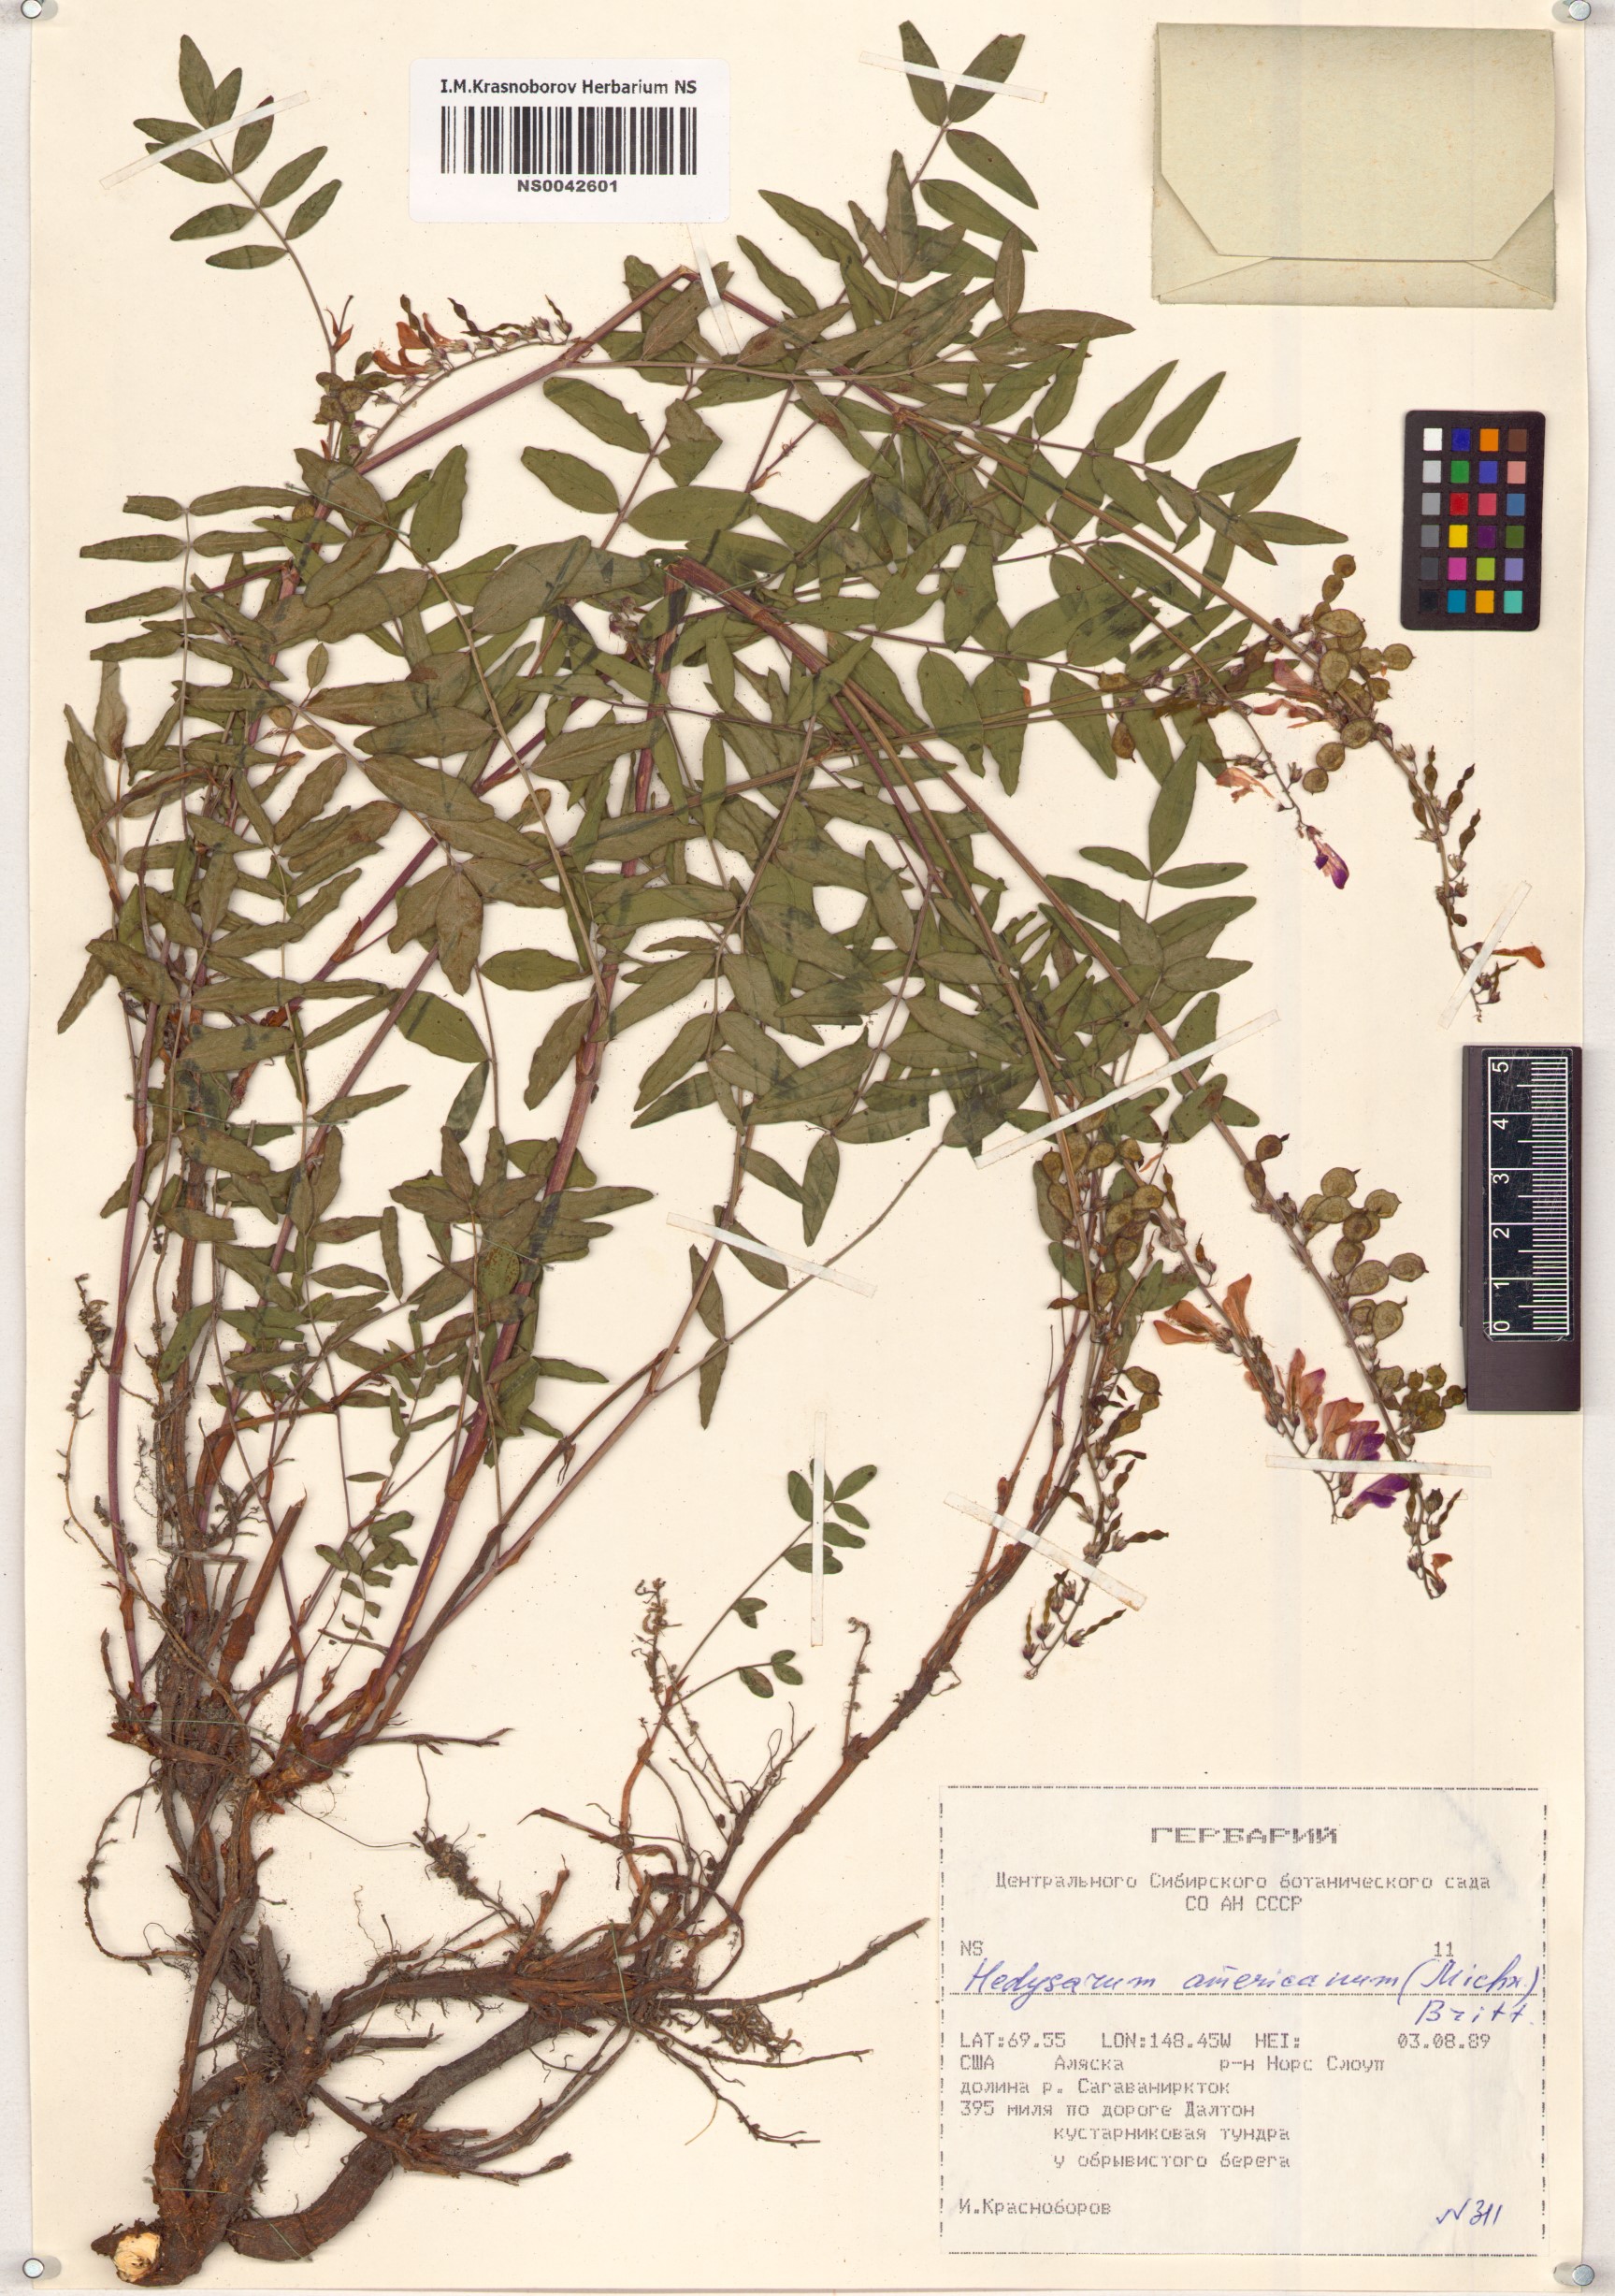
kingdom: Plantae
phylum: Tracheophyta
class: Magnoliopsida
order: Fabales
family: Fabaceae
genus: Hedysarum
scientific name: Hedysarum americanum
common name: Alpine hedysarum
